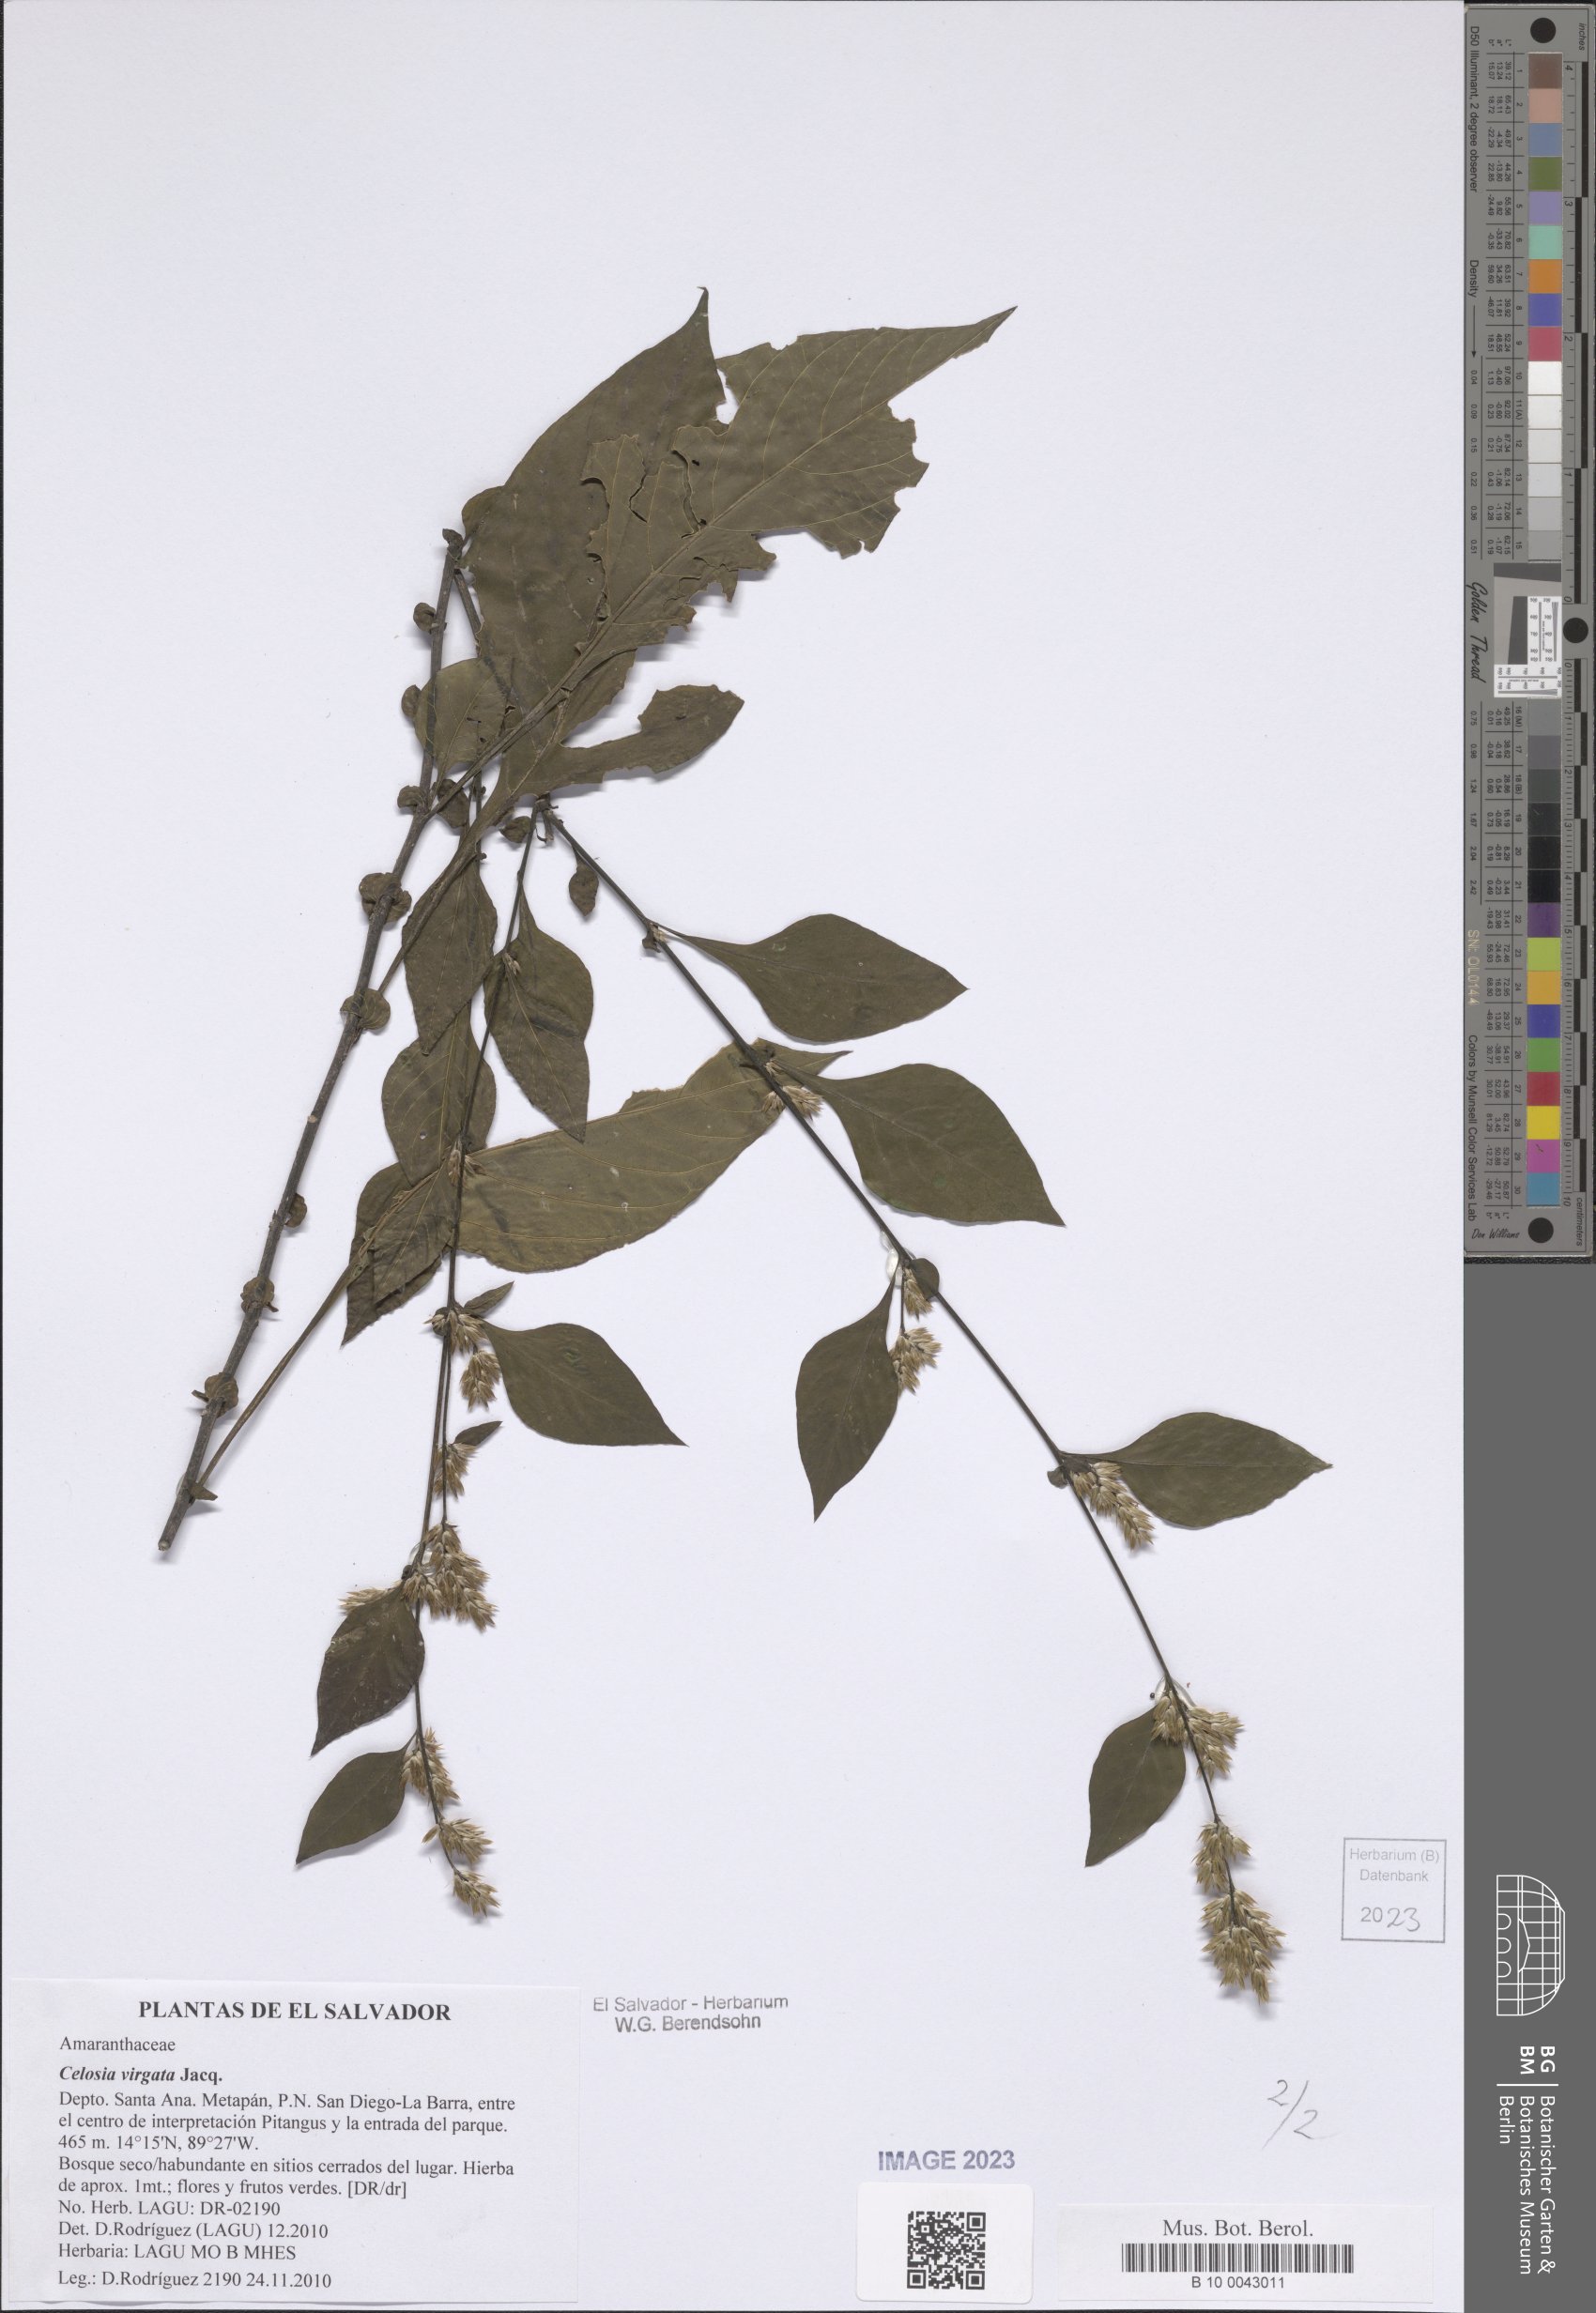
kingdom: Plantae
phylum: Tracheophyta
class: Magnoliopsida
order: Caryophyllales
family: Amaranthaceae
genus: Celosia
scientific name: Celosia virgata
